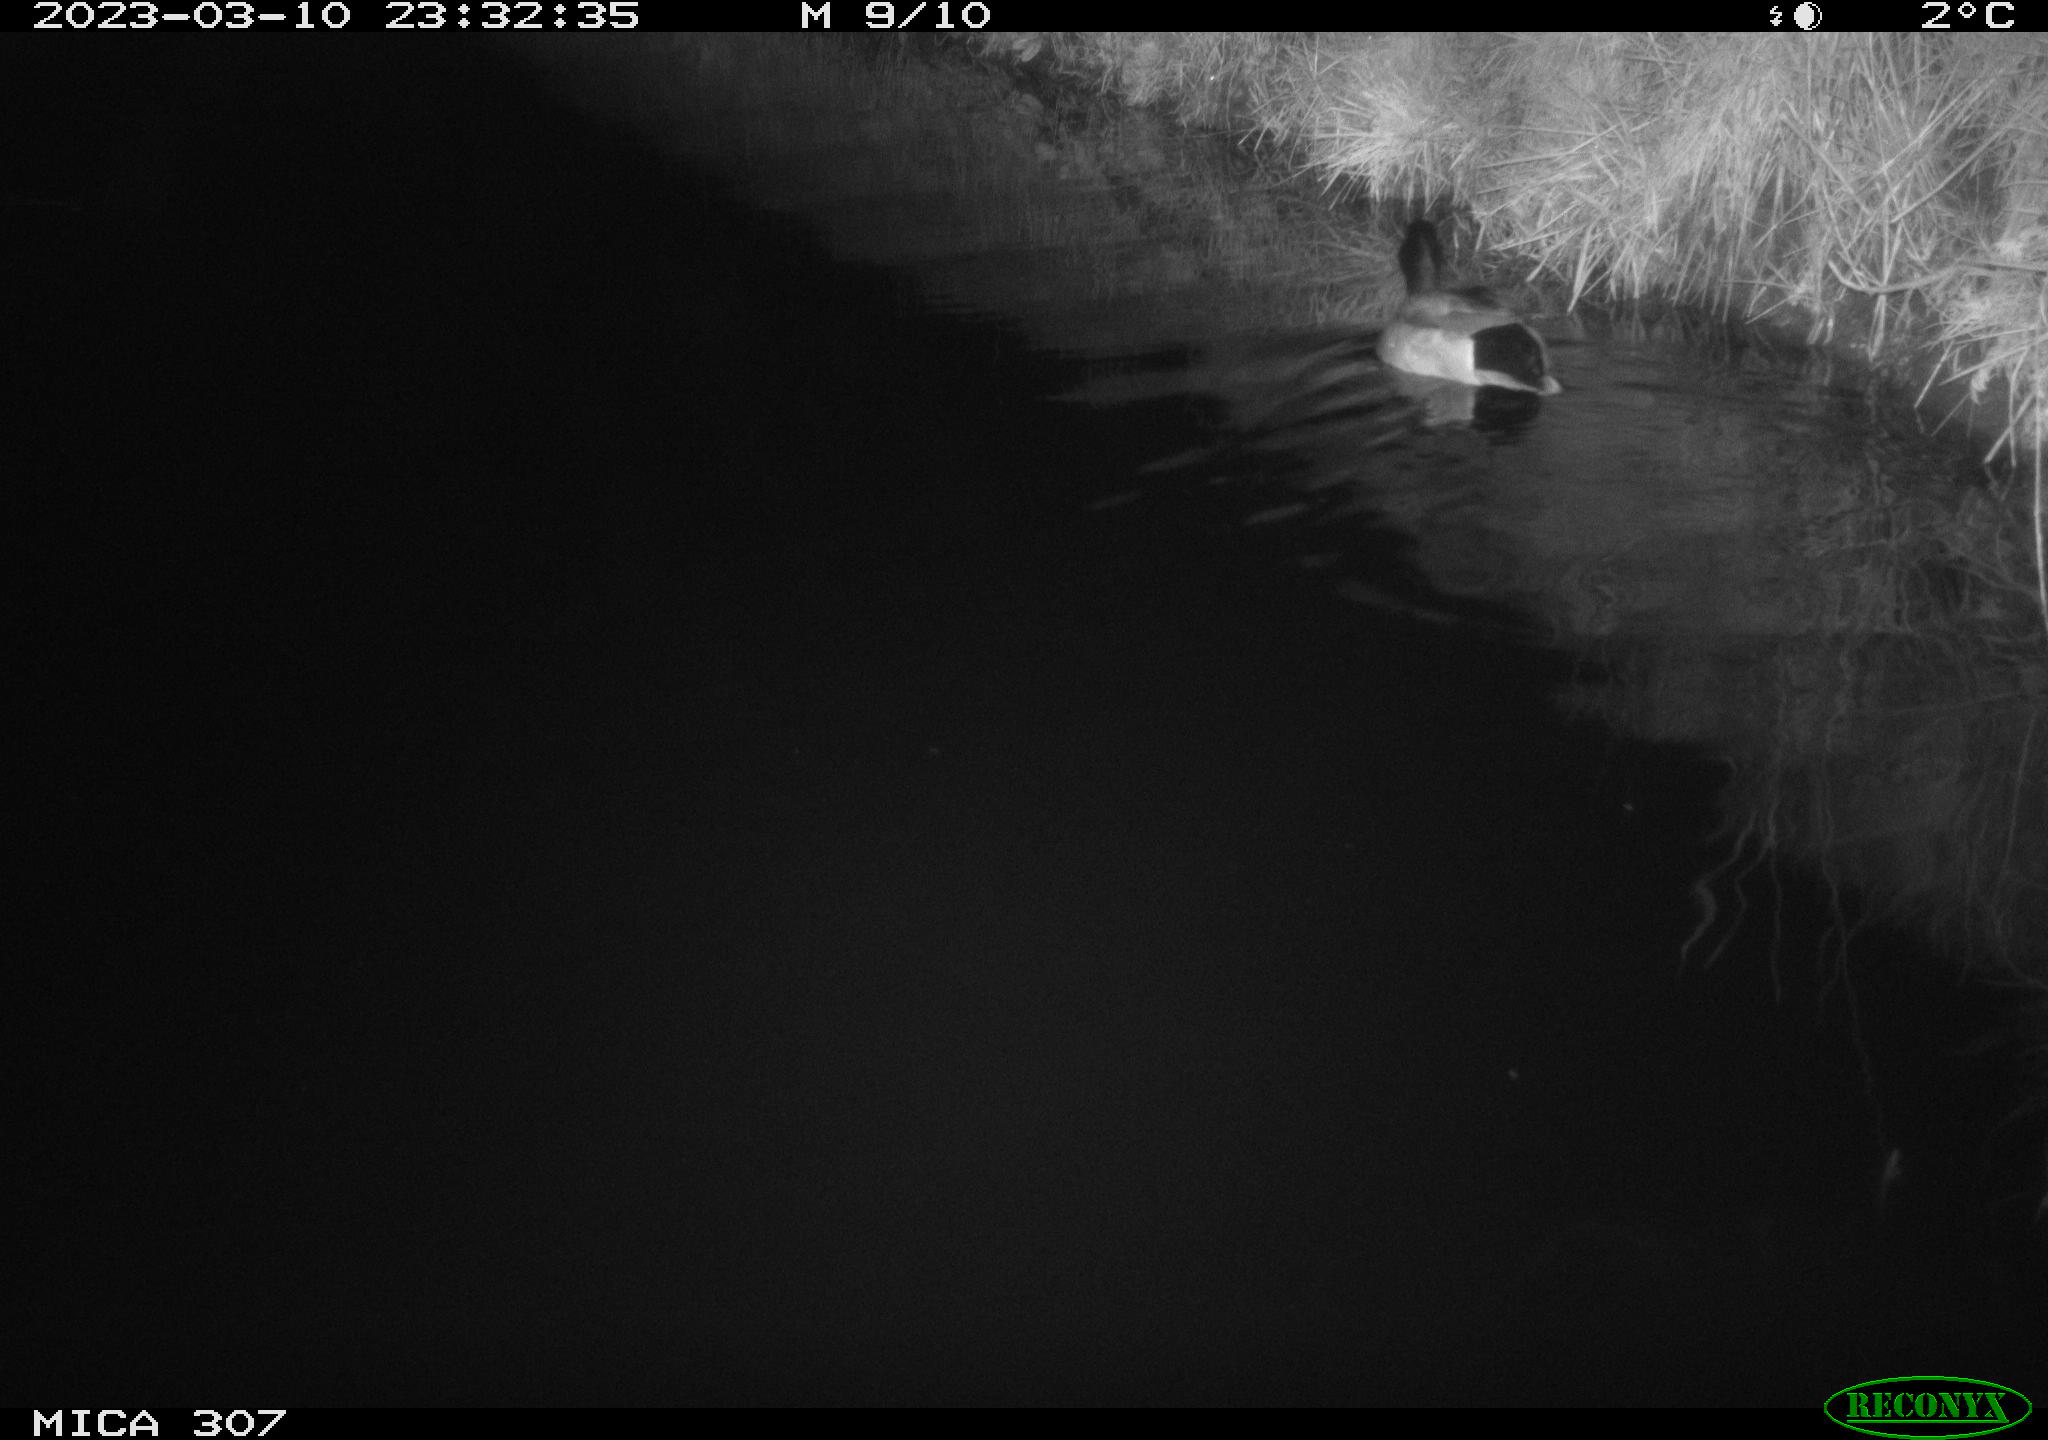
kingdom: Animalia
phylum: Chordata
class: Aves
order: Anseriformes
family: Anatidae
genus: Anas
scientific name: Anas
